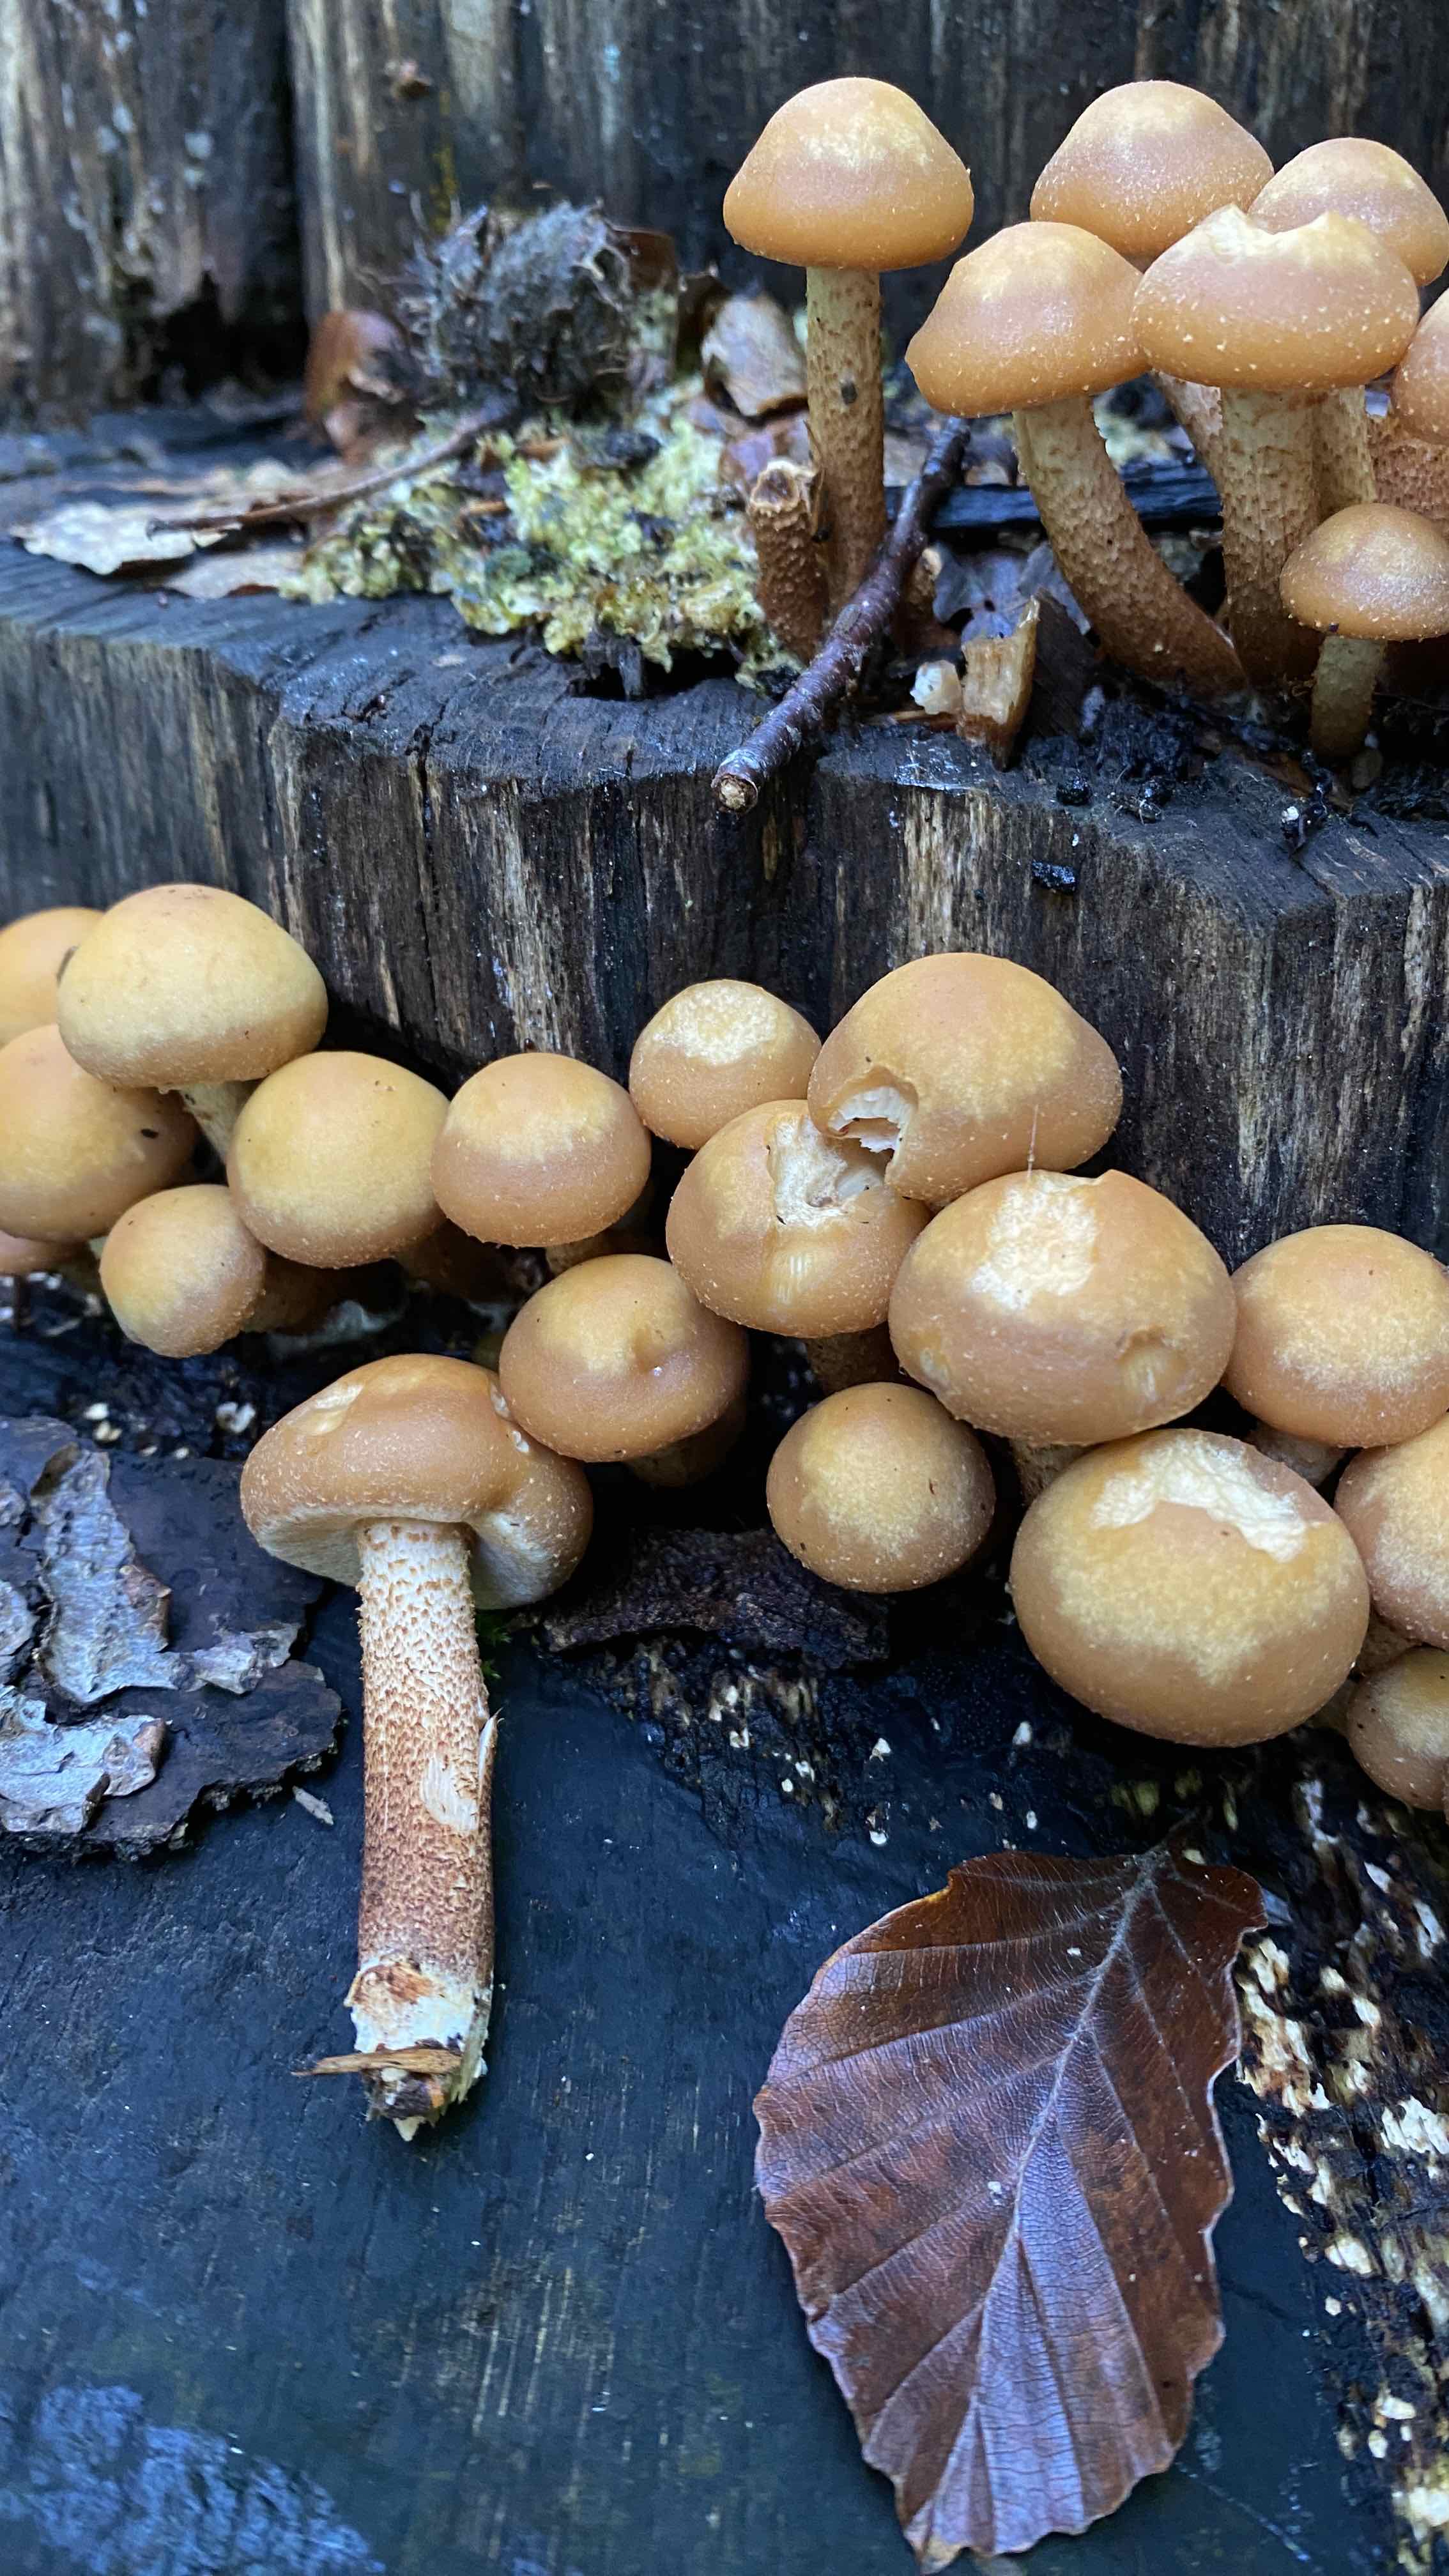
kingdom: Fungi
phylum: Basidiomycota
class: Agaricomycetes
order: Agaricales
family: Strophariaceae
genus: Kuehneromyces
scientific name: Kuehneromyces mutabilis
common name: foranderlig skælhat
